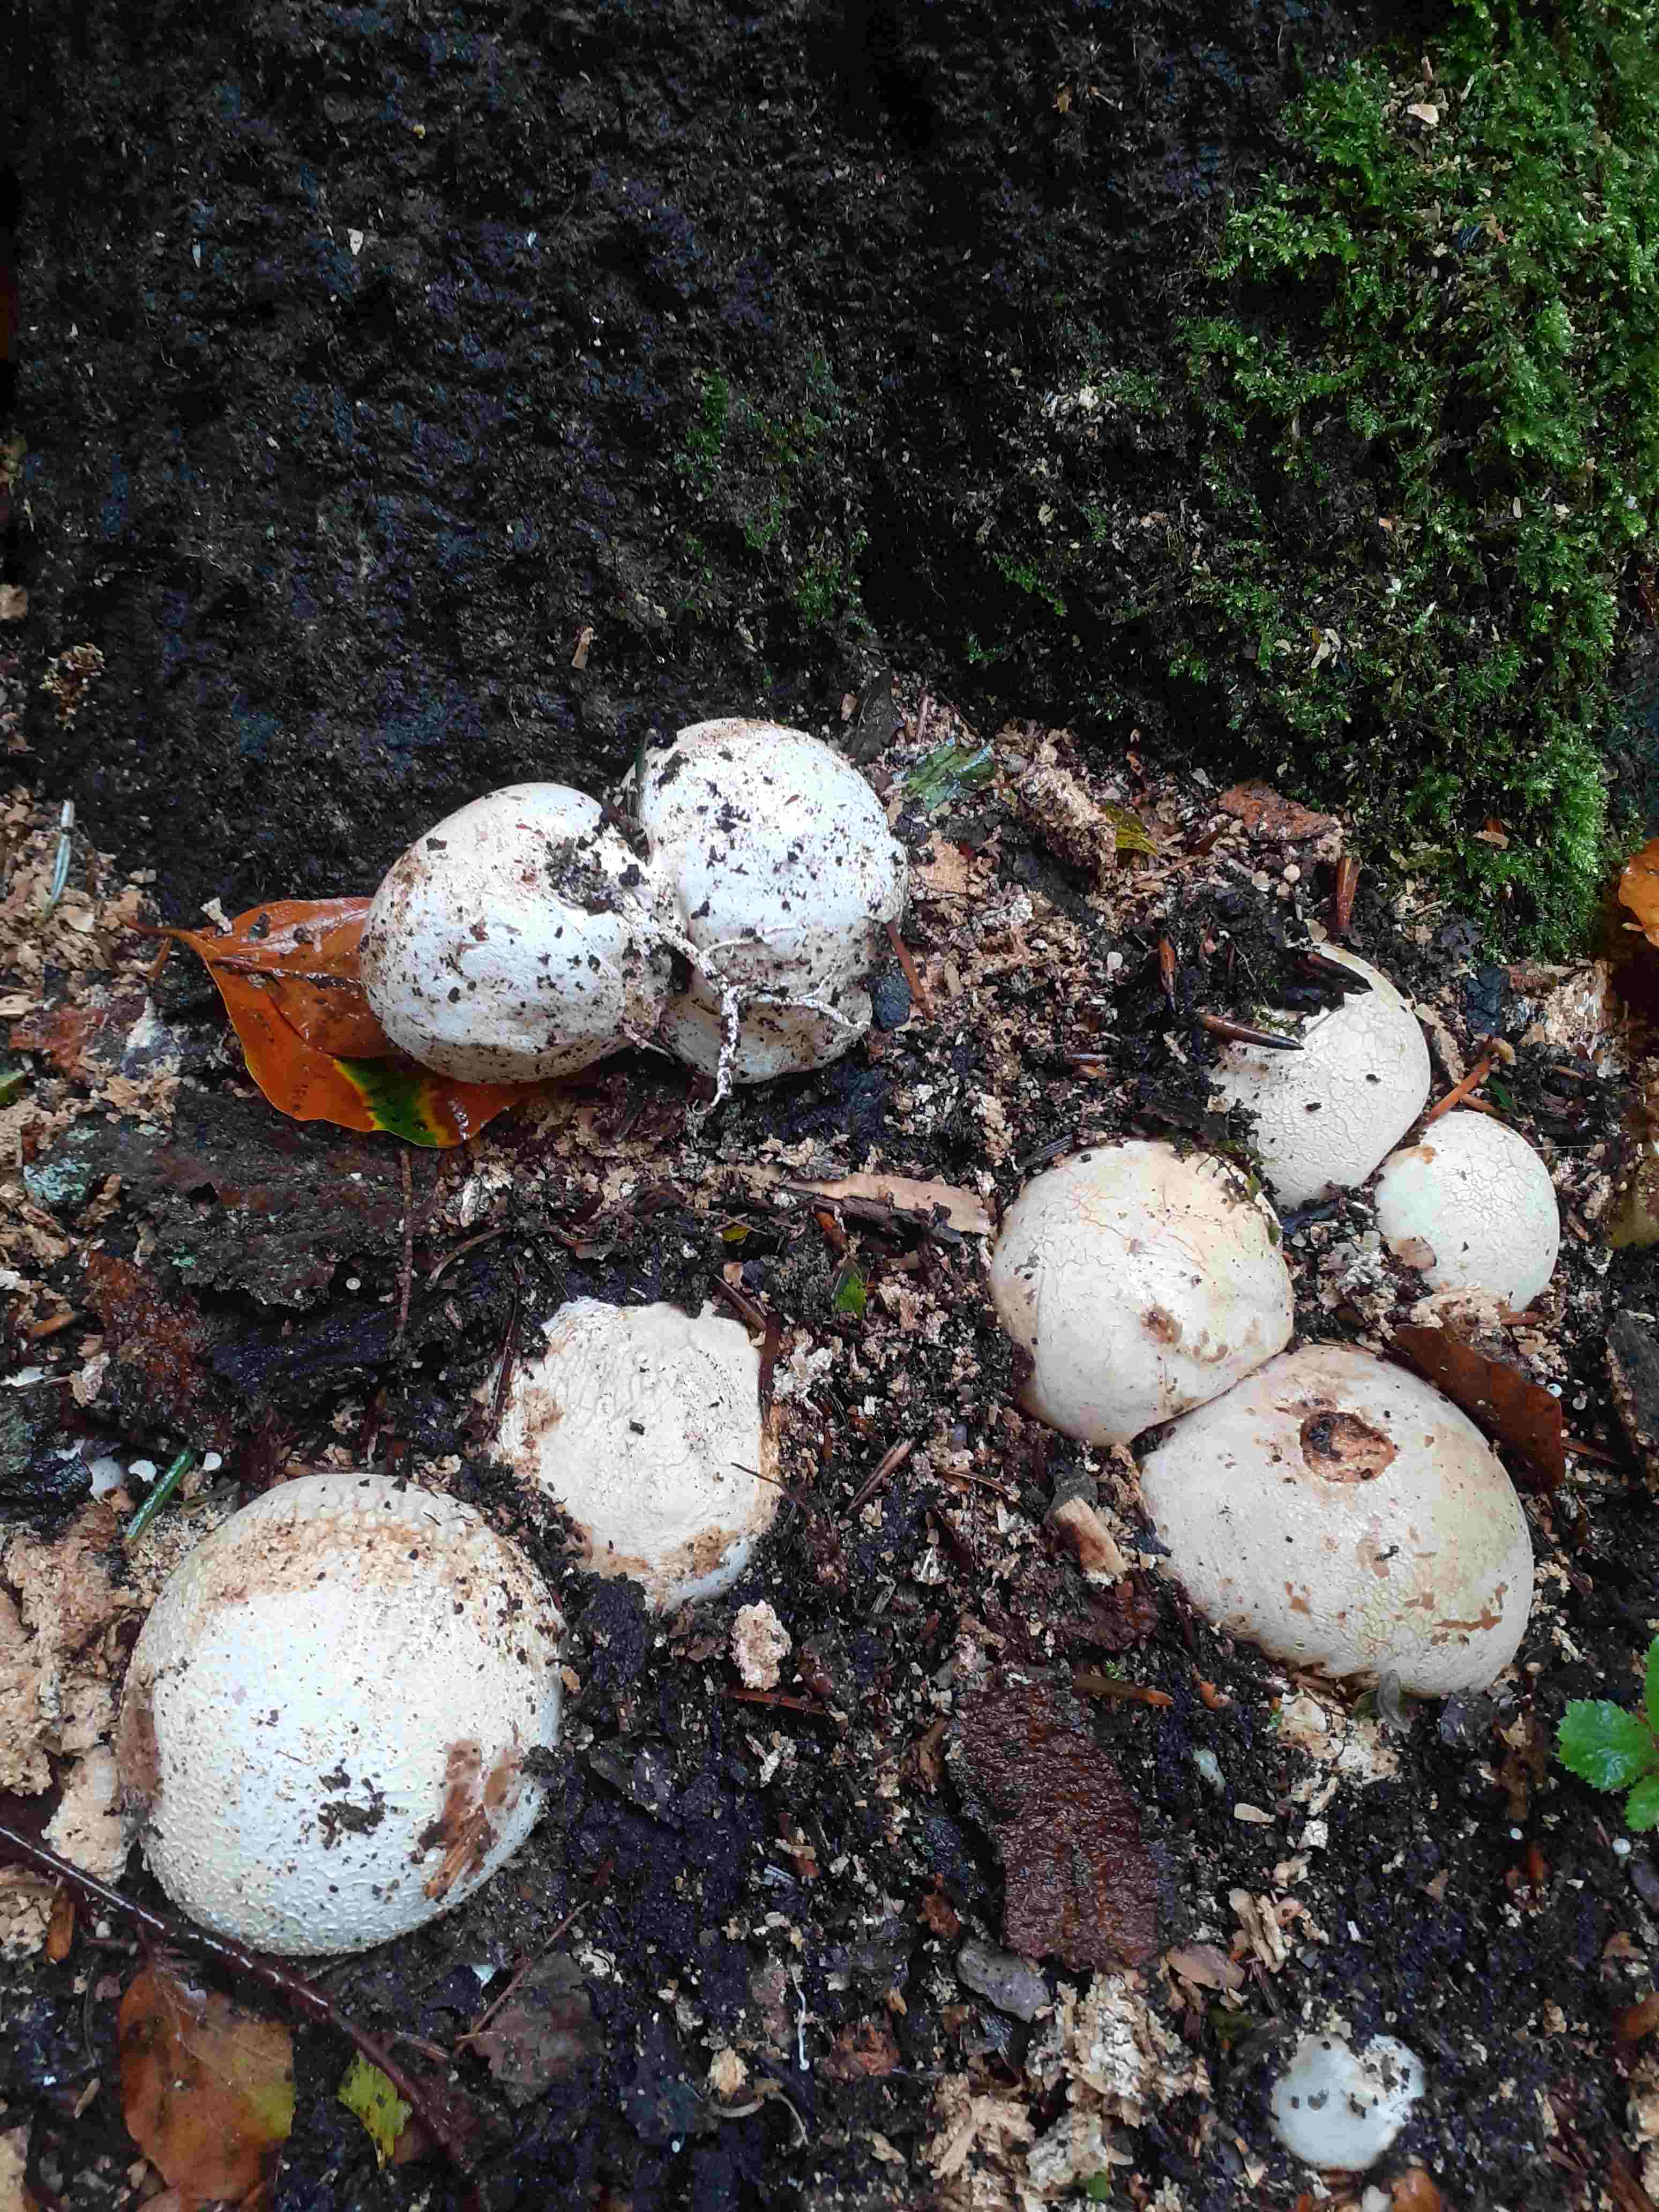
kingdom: Fungi
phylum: Basidiomycota
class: Agaricomycetes
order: Phallales
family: Phallaceae
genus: Phallus
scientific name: Phallus impudicus
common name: almindelig stinksvamp
